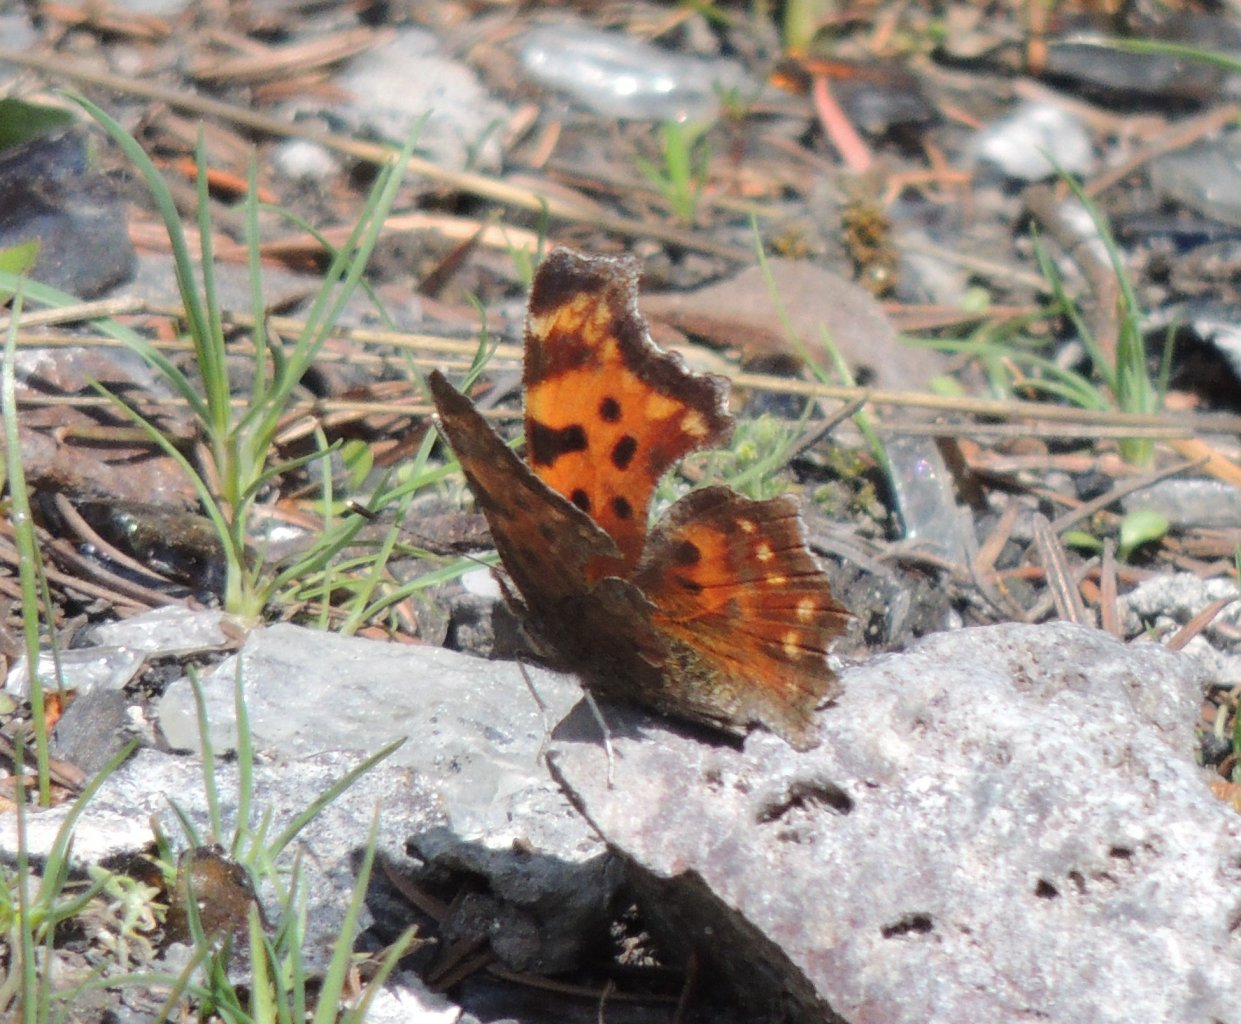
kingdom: Animalia
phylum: Arthropoda
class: Insecta
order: Lepidoptera
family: Nymphalidae
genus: Polygonia
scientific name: Polygonia faunus
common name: Green Comma
